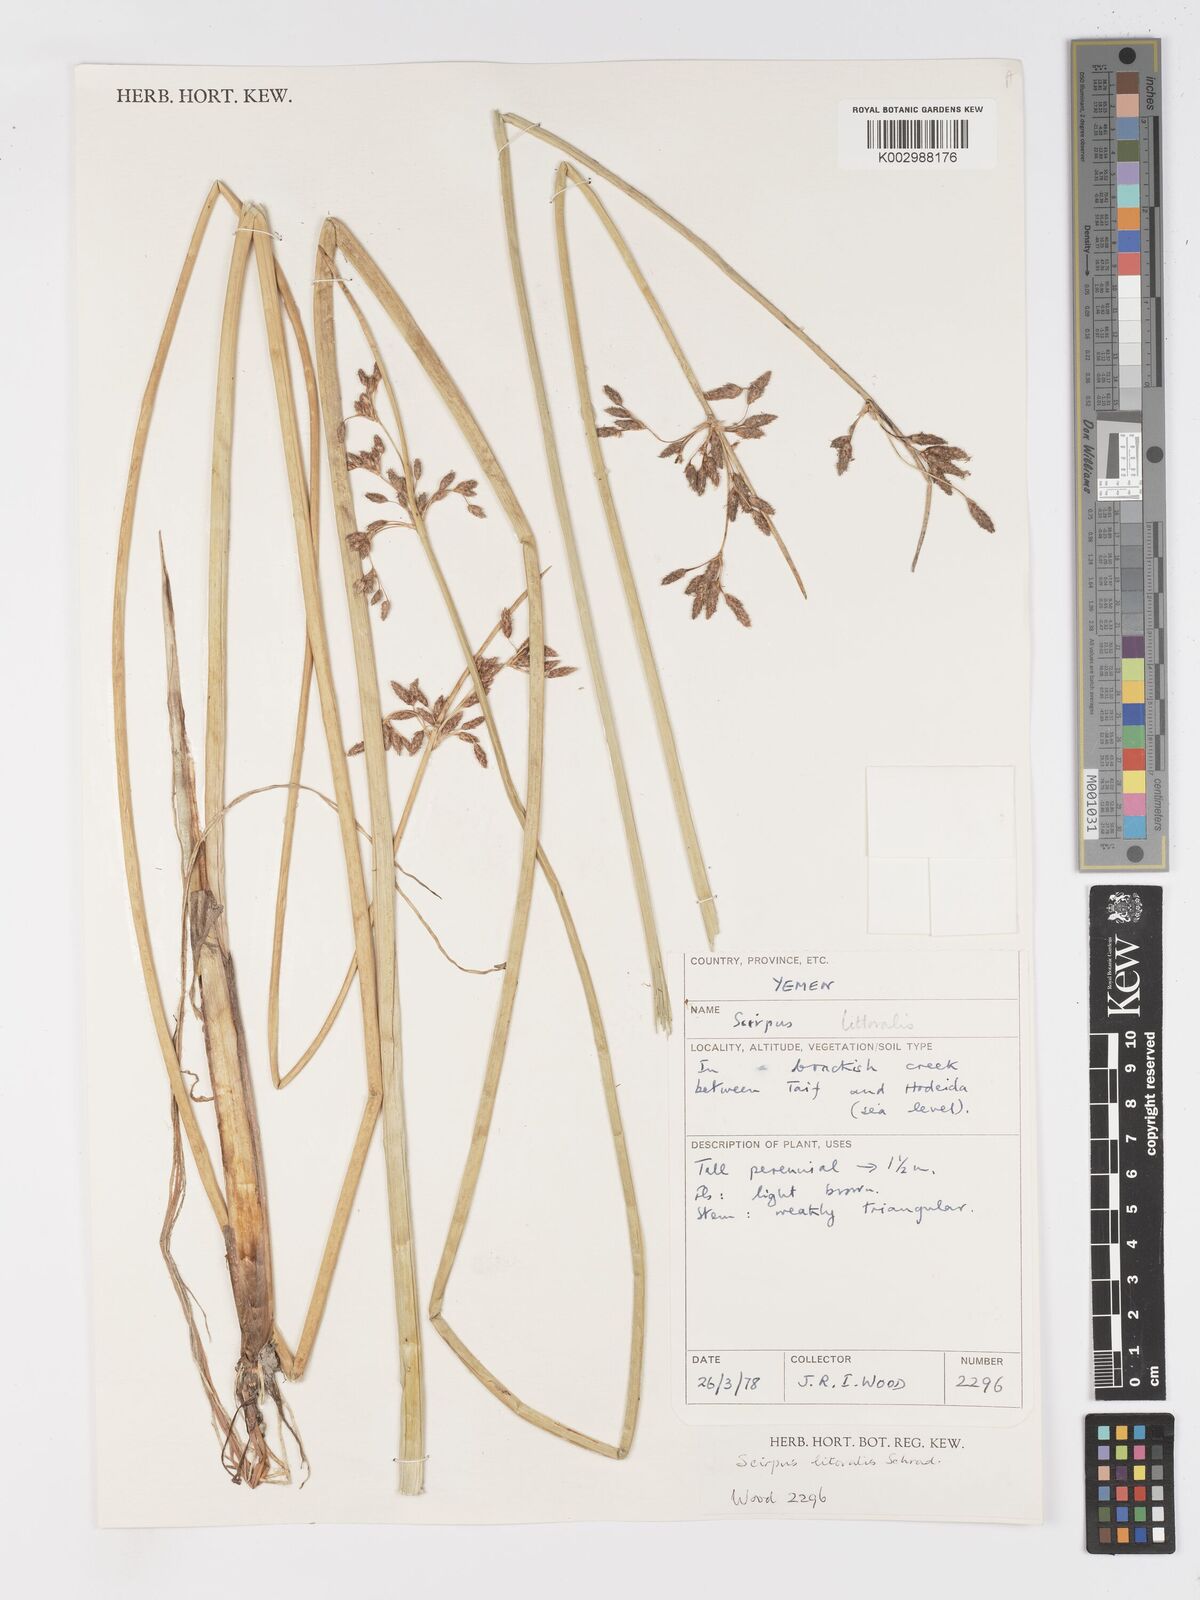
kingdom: Plantae
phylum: Tracheophyta
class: Liliopsida
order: Poales
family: Cyperaceae
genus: Schoenoplectus
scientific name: Schoenoplectus litoralis
